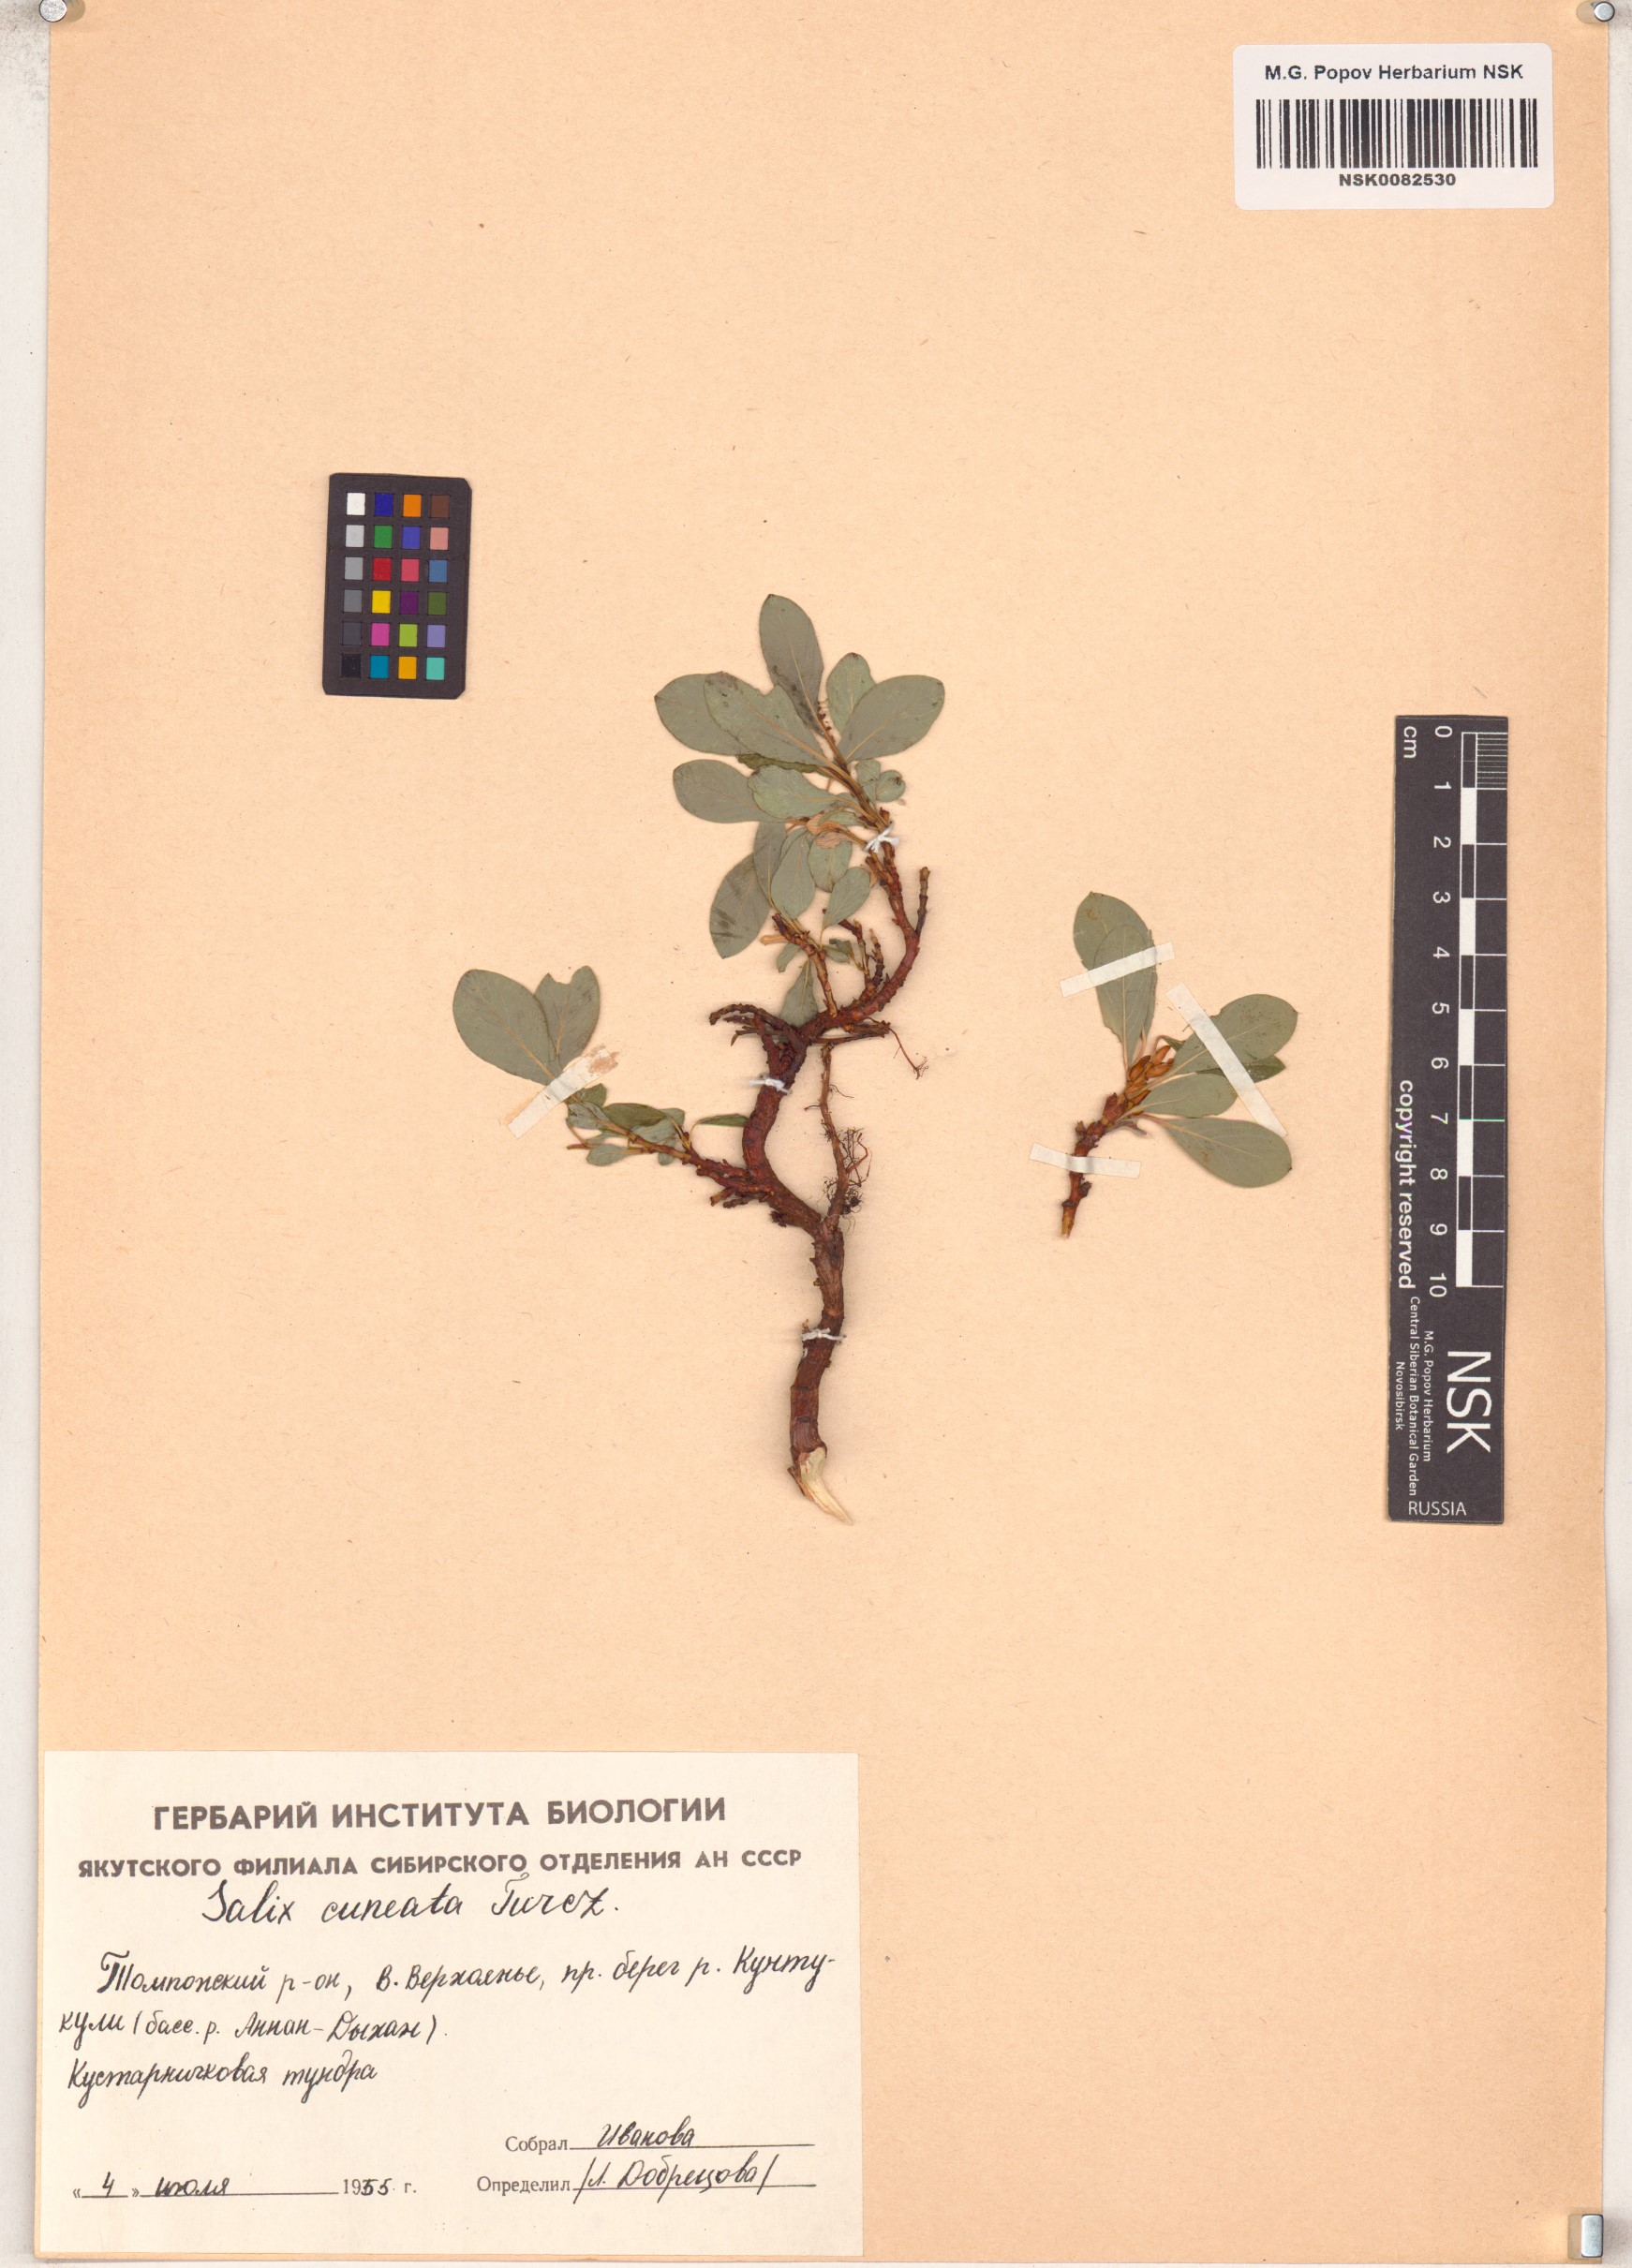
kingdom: Plantae
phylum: Tracheophyta
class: Magnoliopsida
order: Malpighiales
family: Salicaceae
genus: Salix
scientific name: Salix sphenophylla
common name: Wedge-leaved willow
